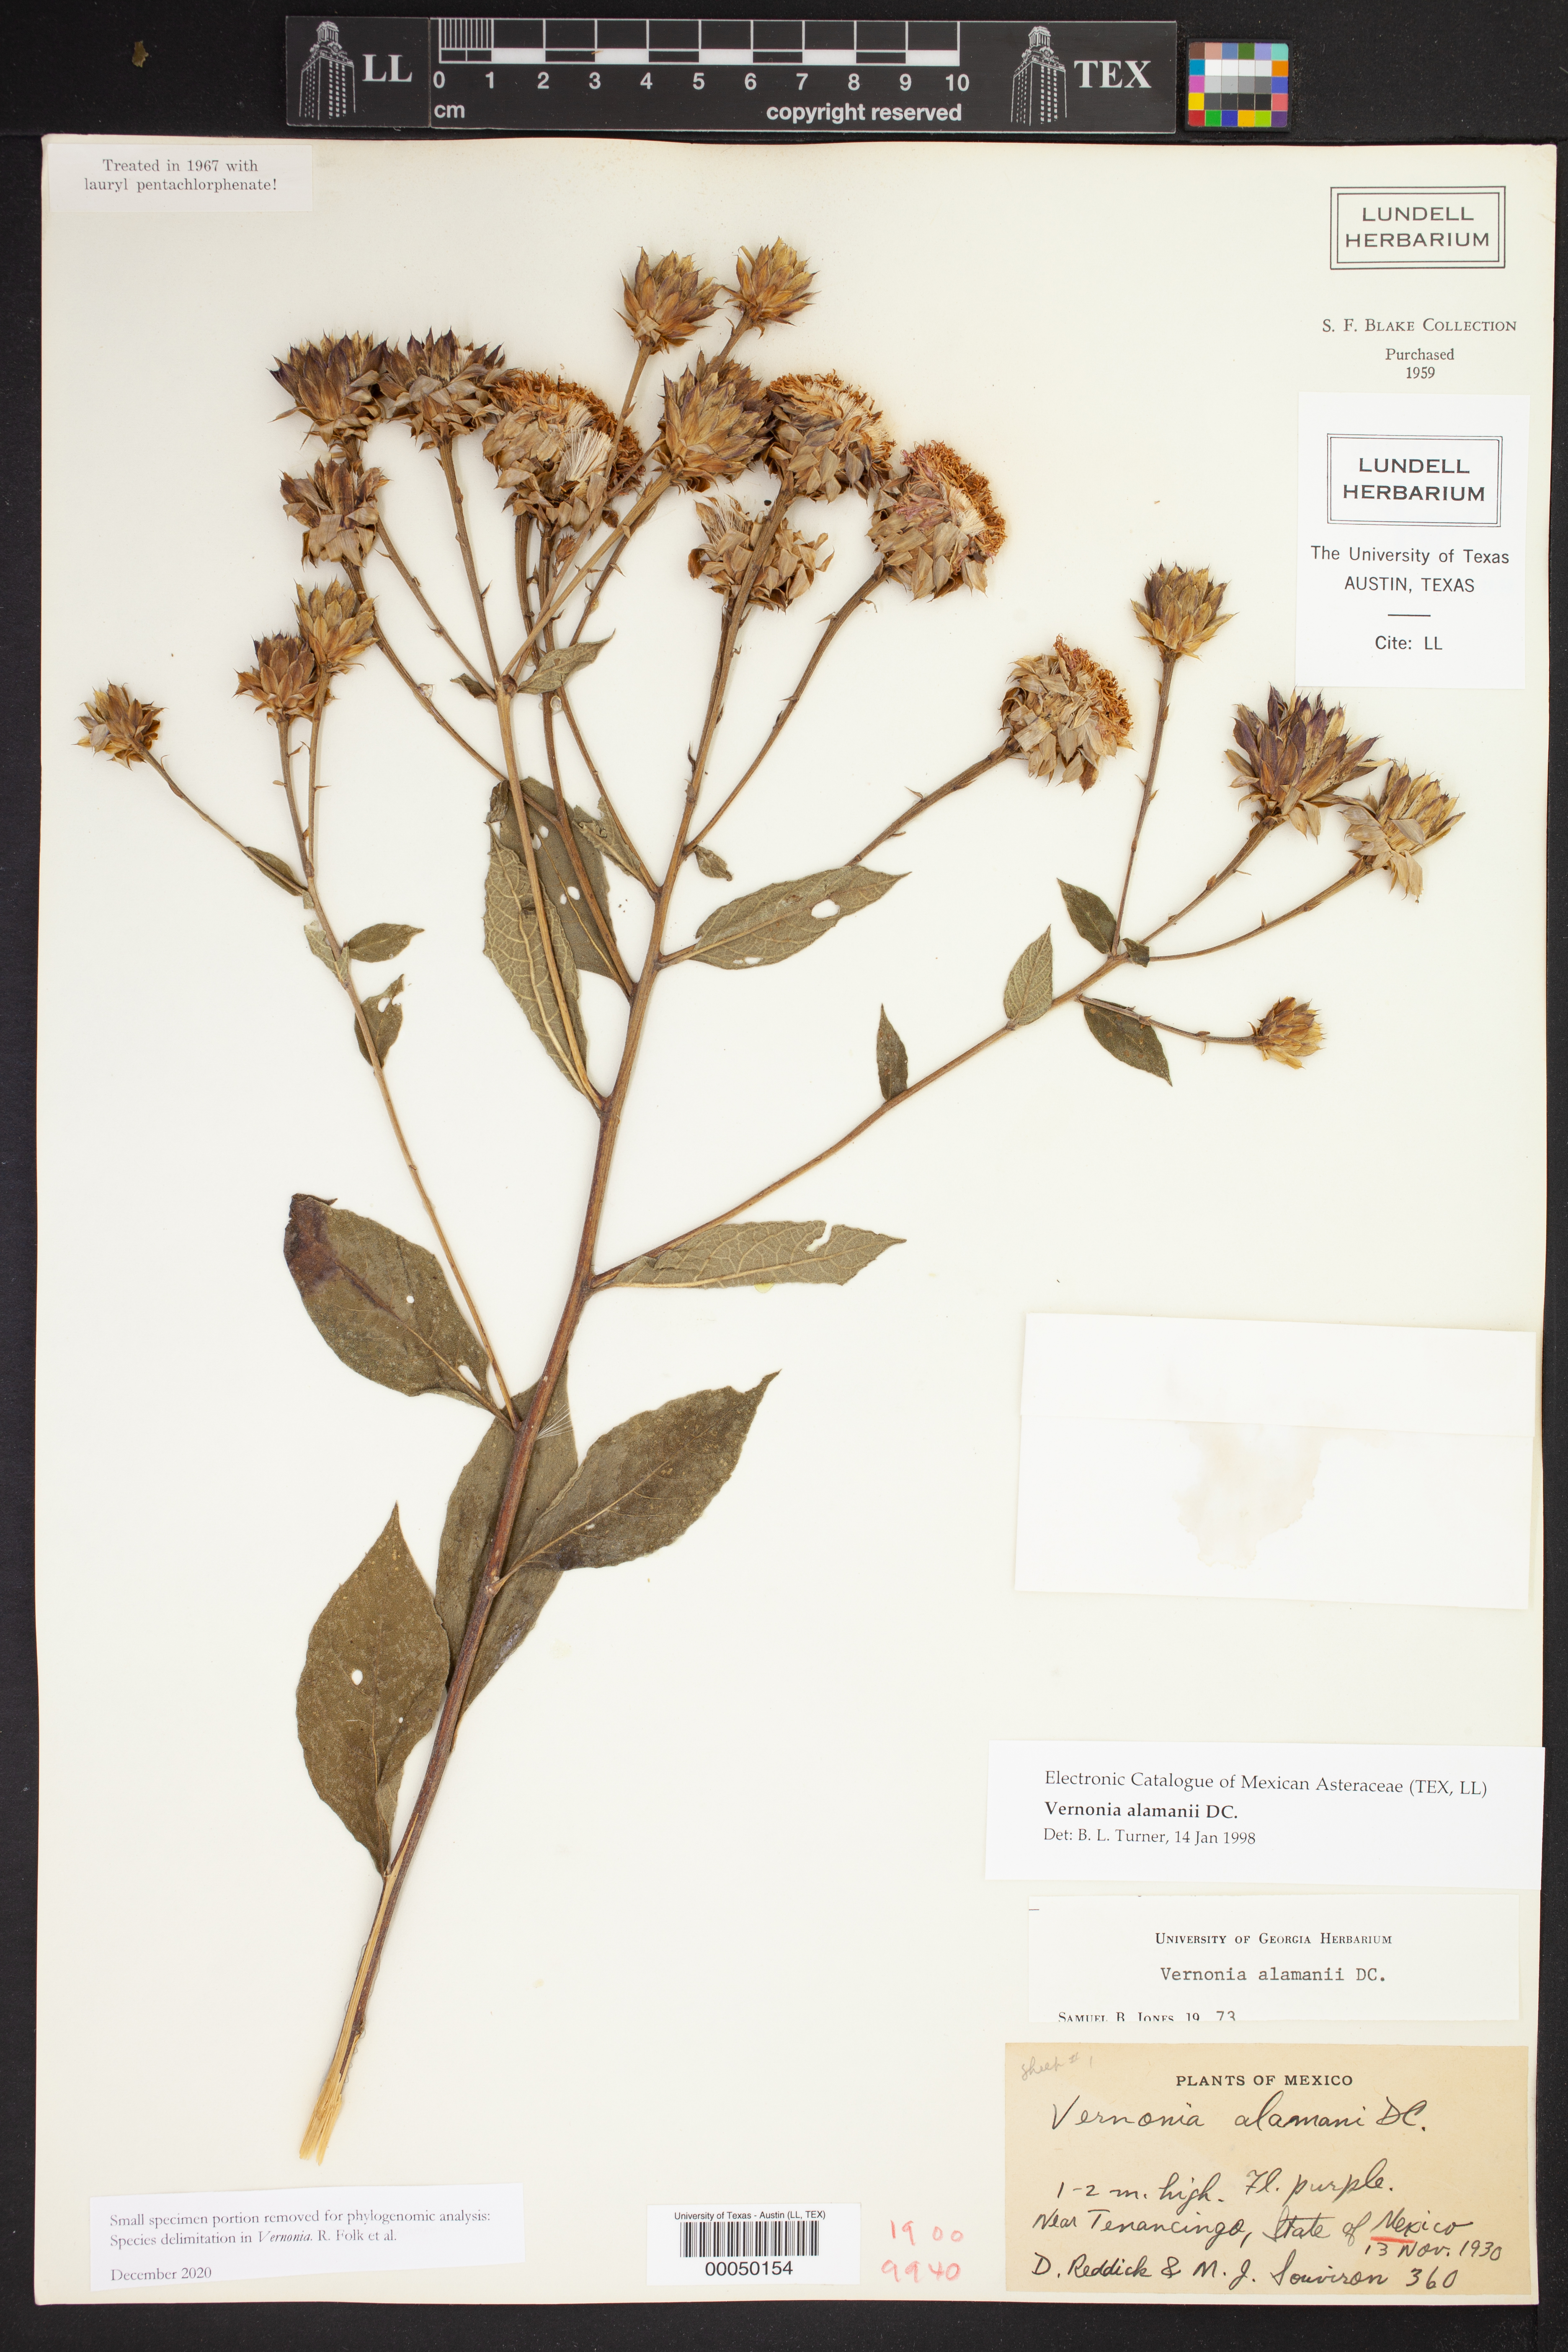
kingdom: Plantae
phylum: Tracheophyta
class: Magnoliopsida
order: Asterales
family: Asteraceae
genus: Vernonanthura
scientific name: Vernonanthura alamanii
